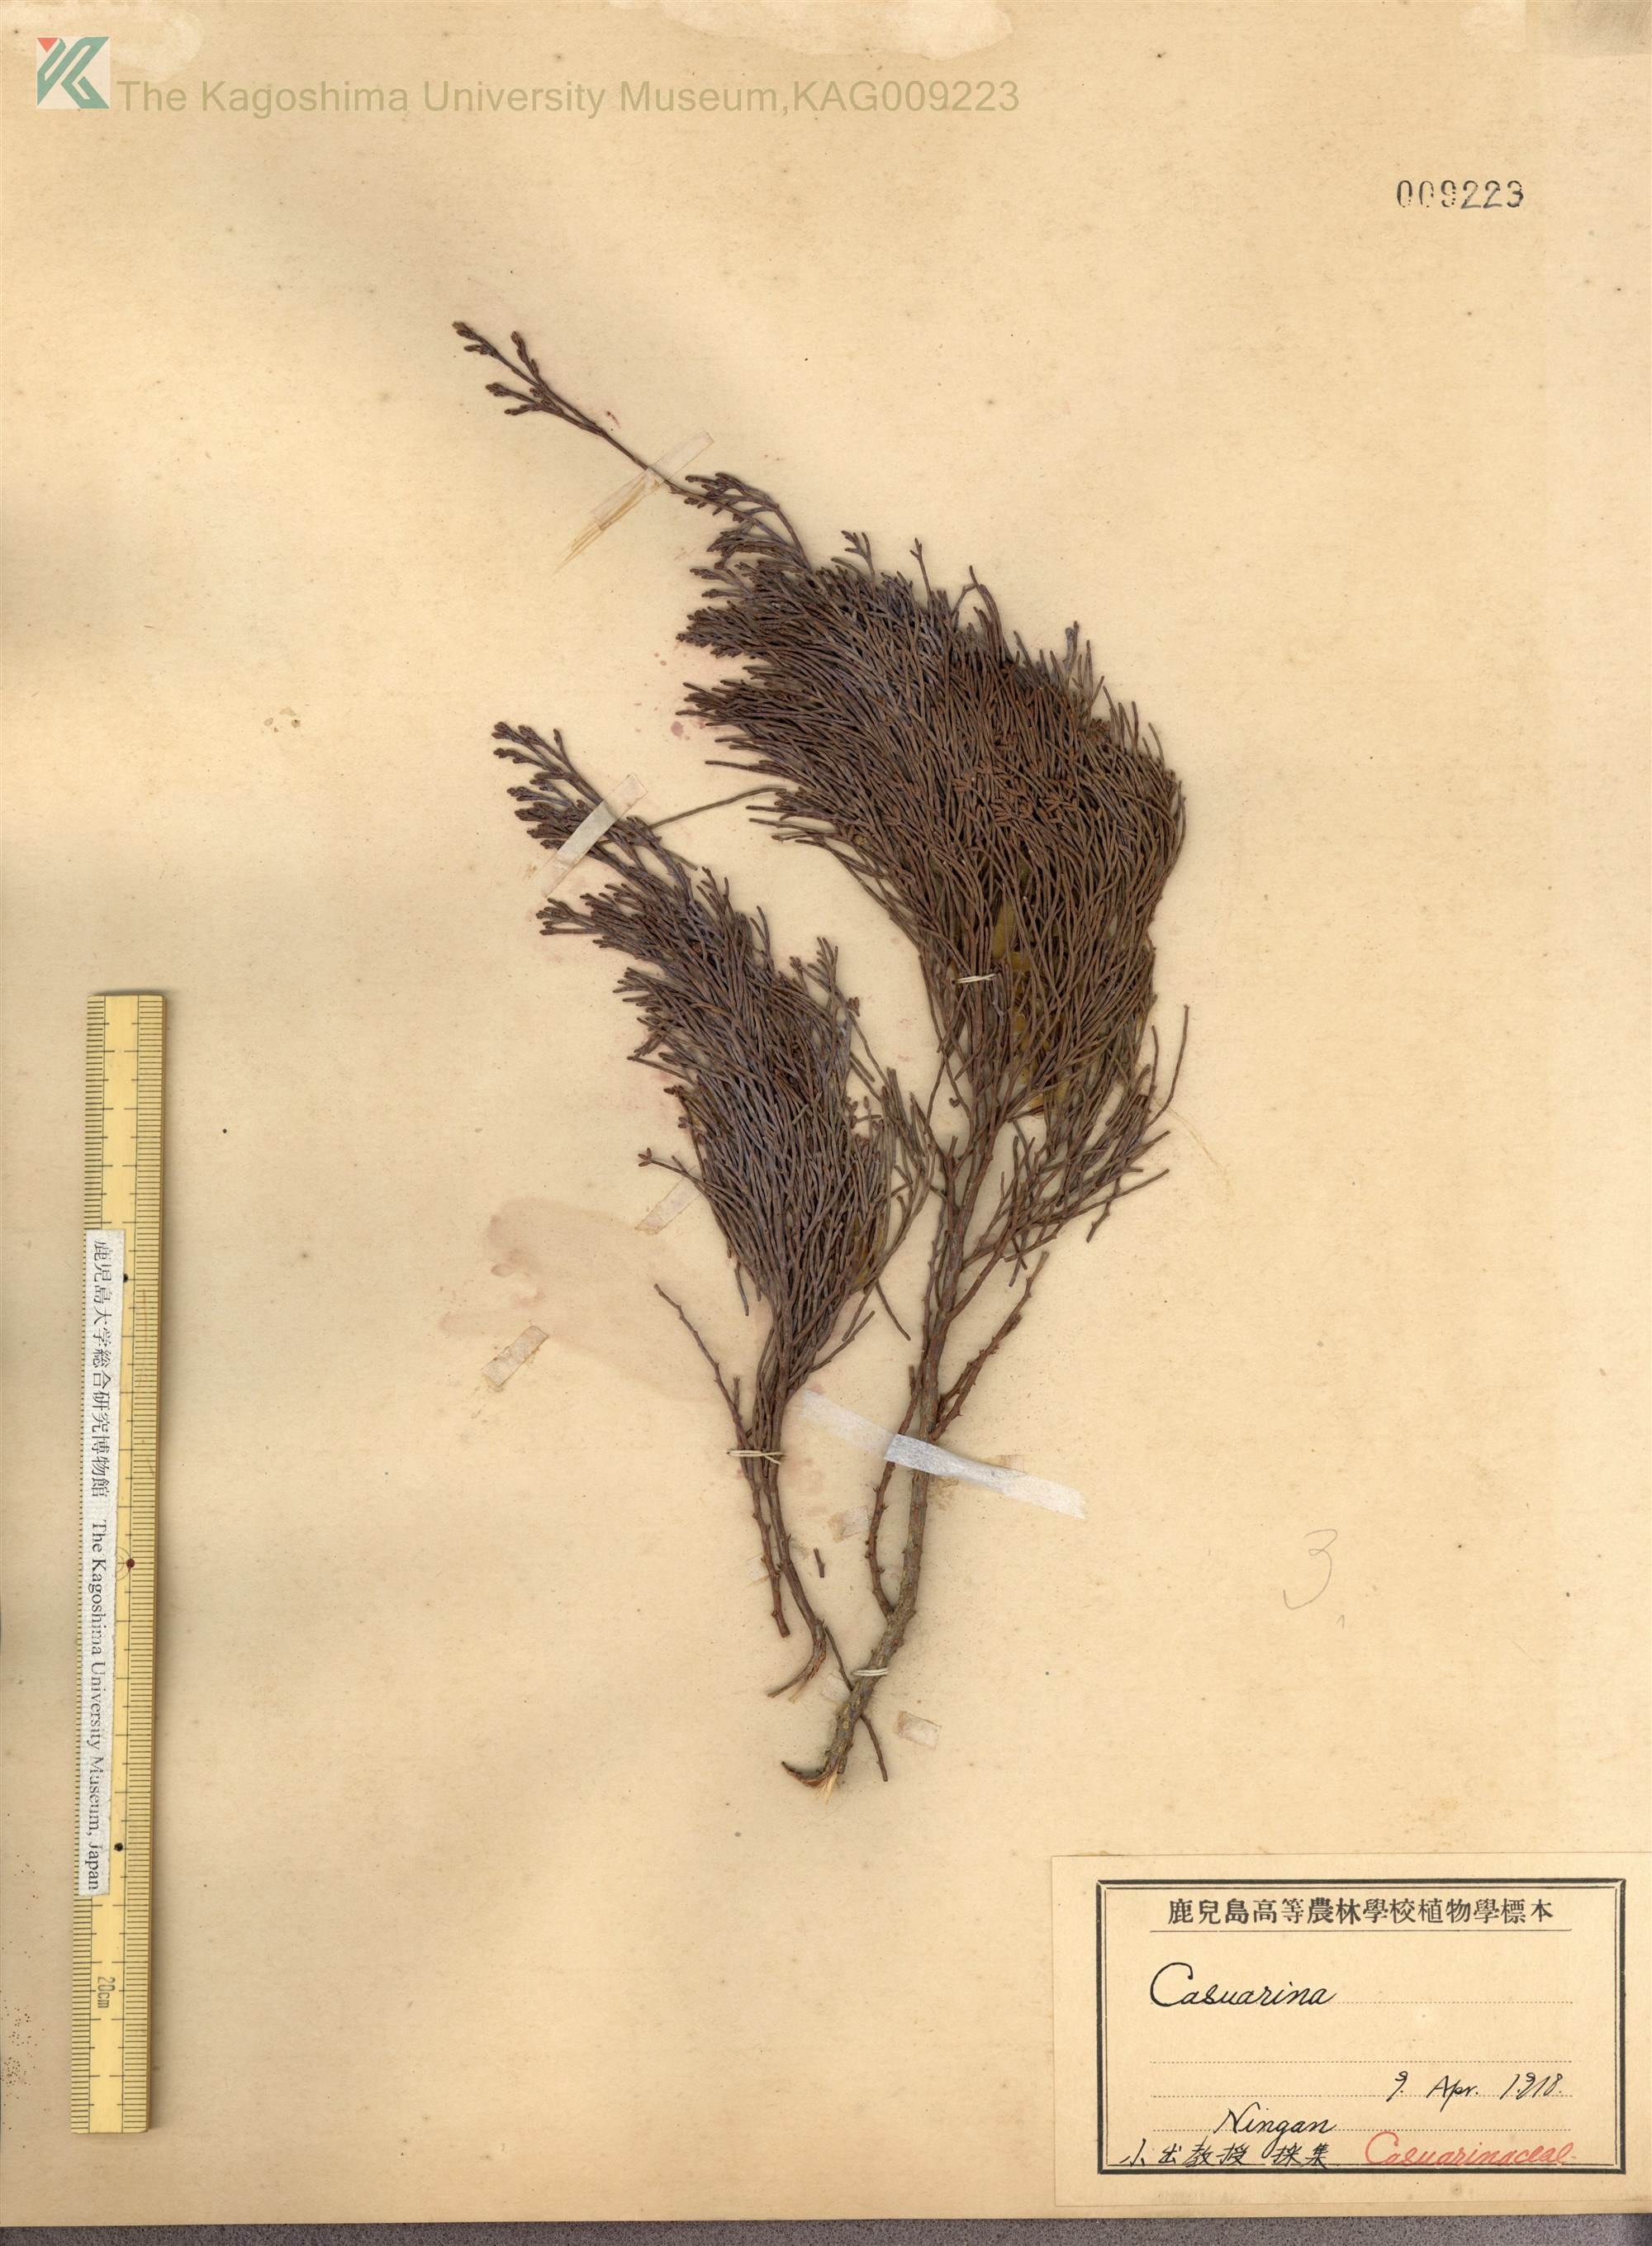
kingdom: Plantae
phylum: Tracheophyta
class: Magnoliopsida
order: Fagales
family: Casuarinaceae
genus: Allocasuarina
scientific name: Allocasuarina verticillata
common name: Drooping she-oak
